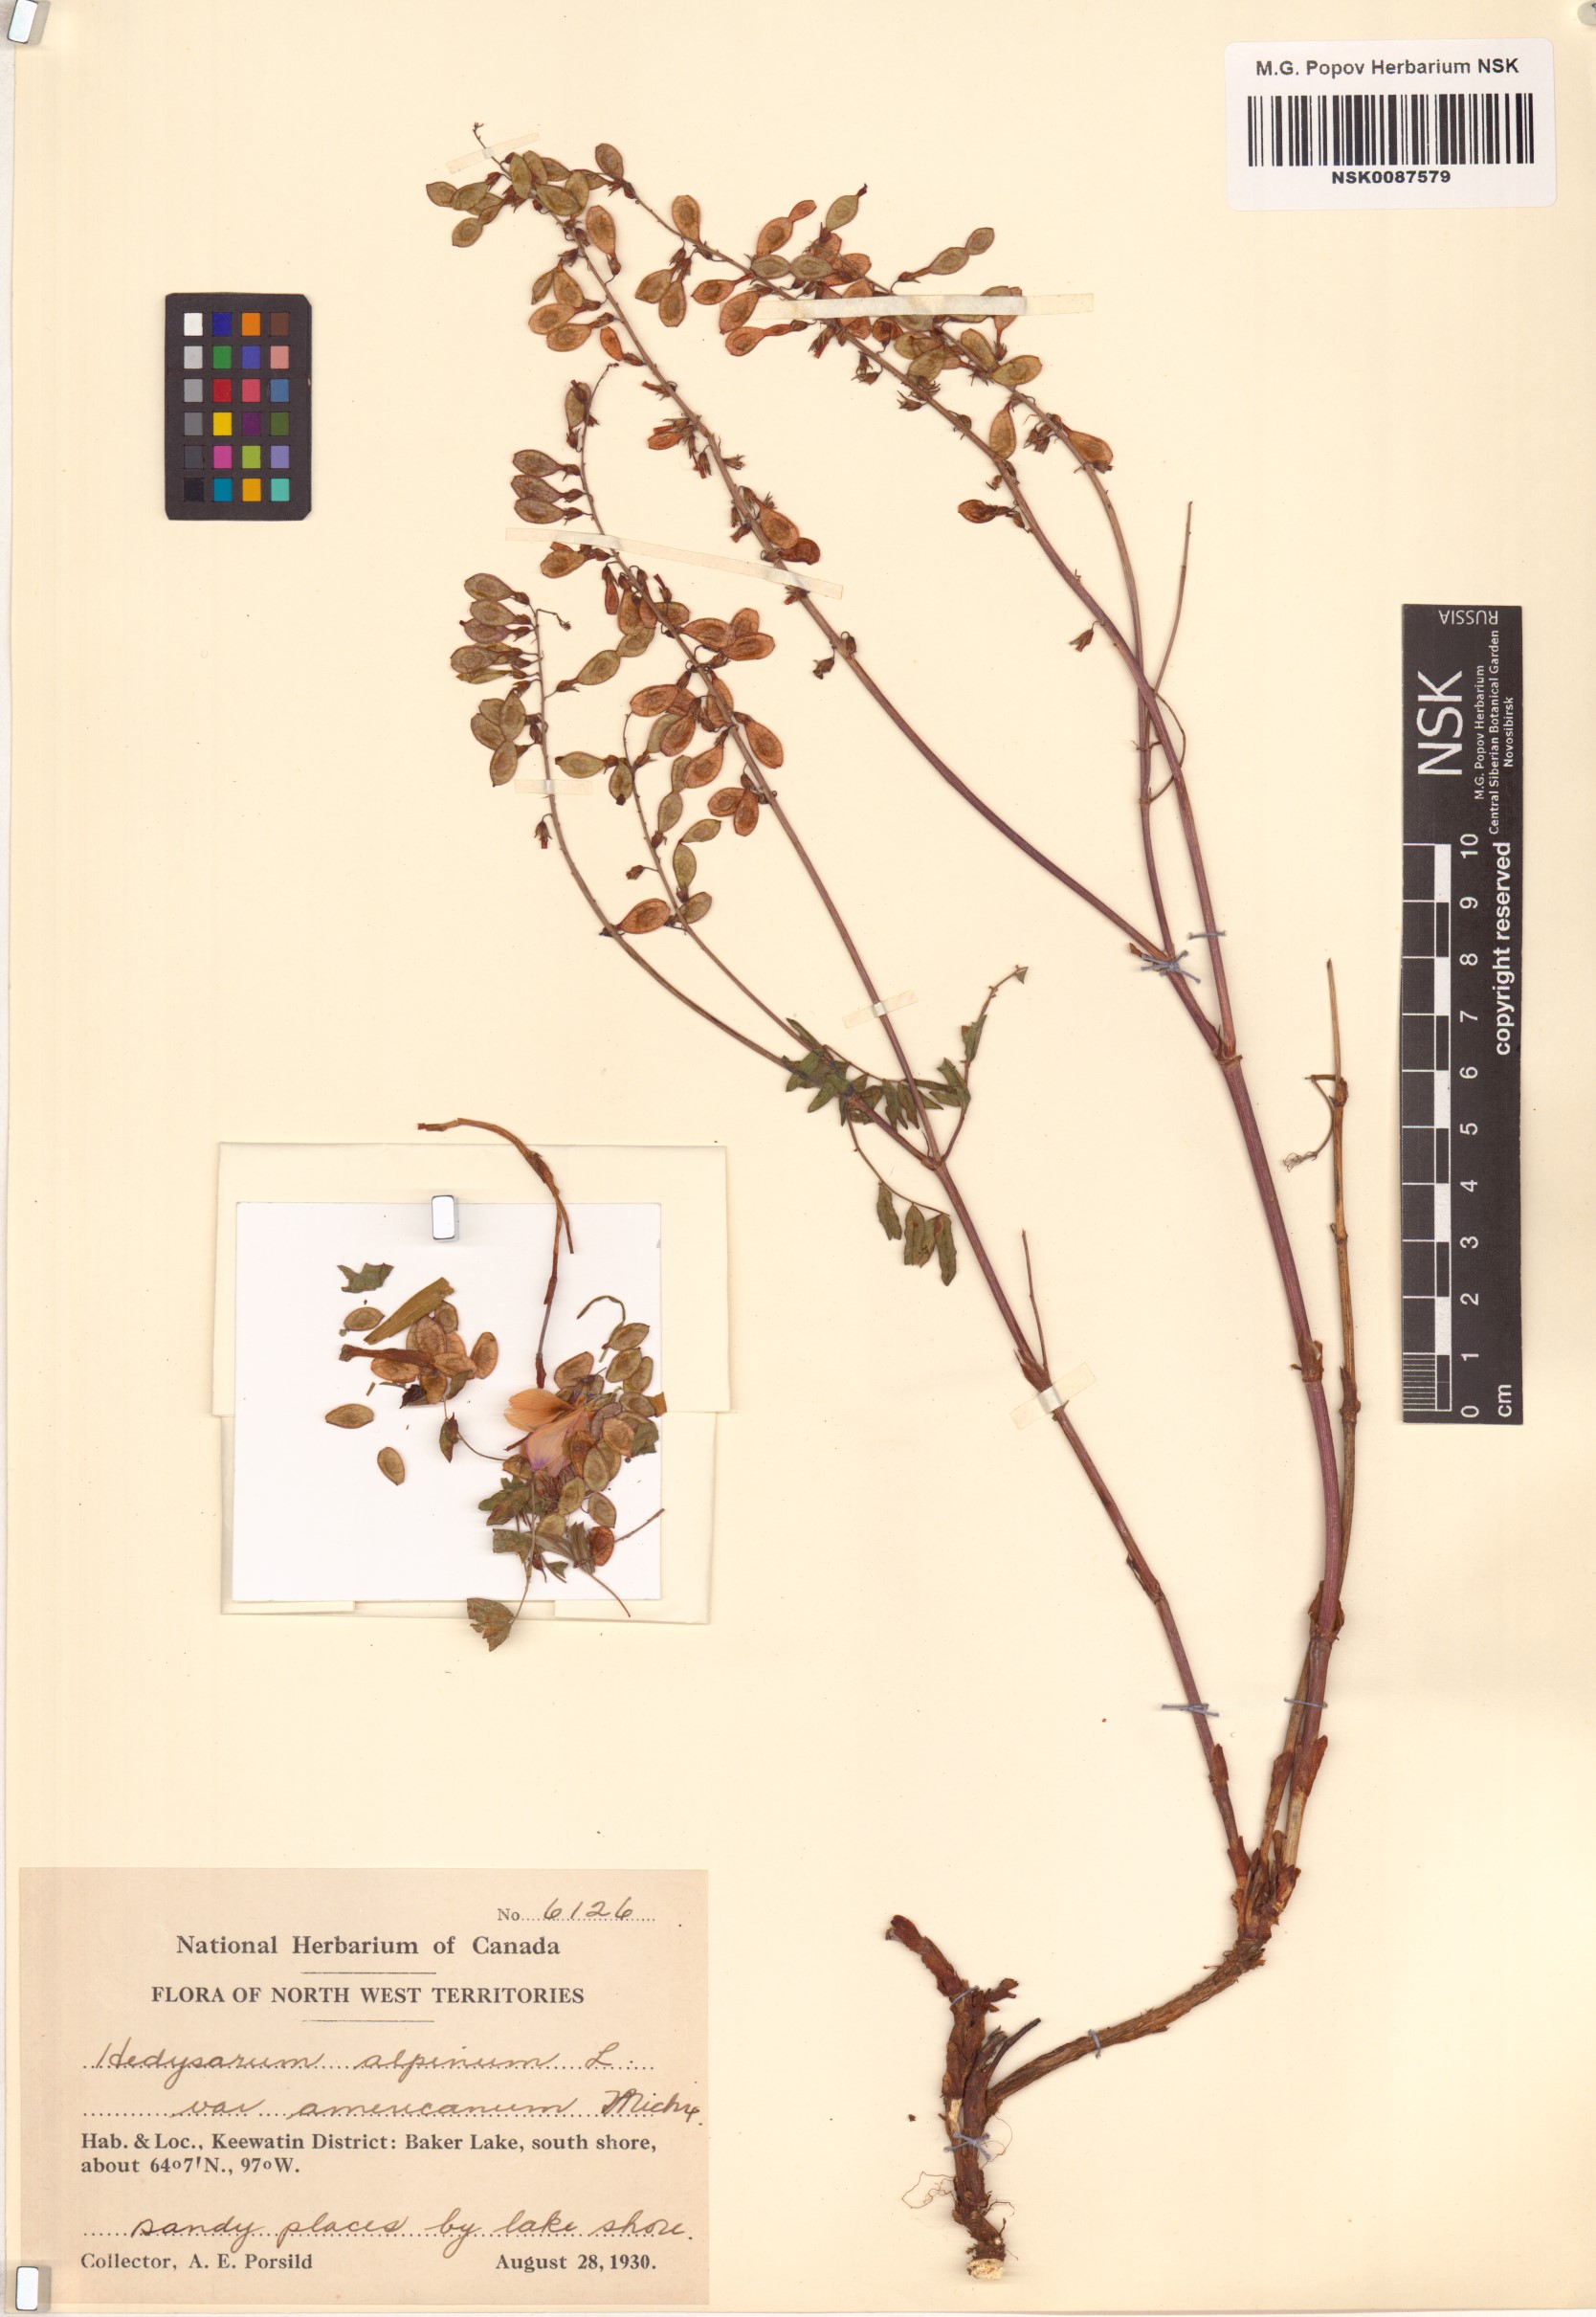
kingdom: Plantae
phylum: Tracheophyta
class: Magnoliopsida
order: Fabales
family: Fabaceae
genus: Hedysarum
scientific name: Hedysarum americanum
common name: Alpine hedysarum
